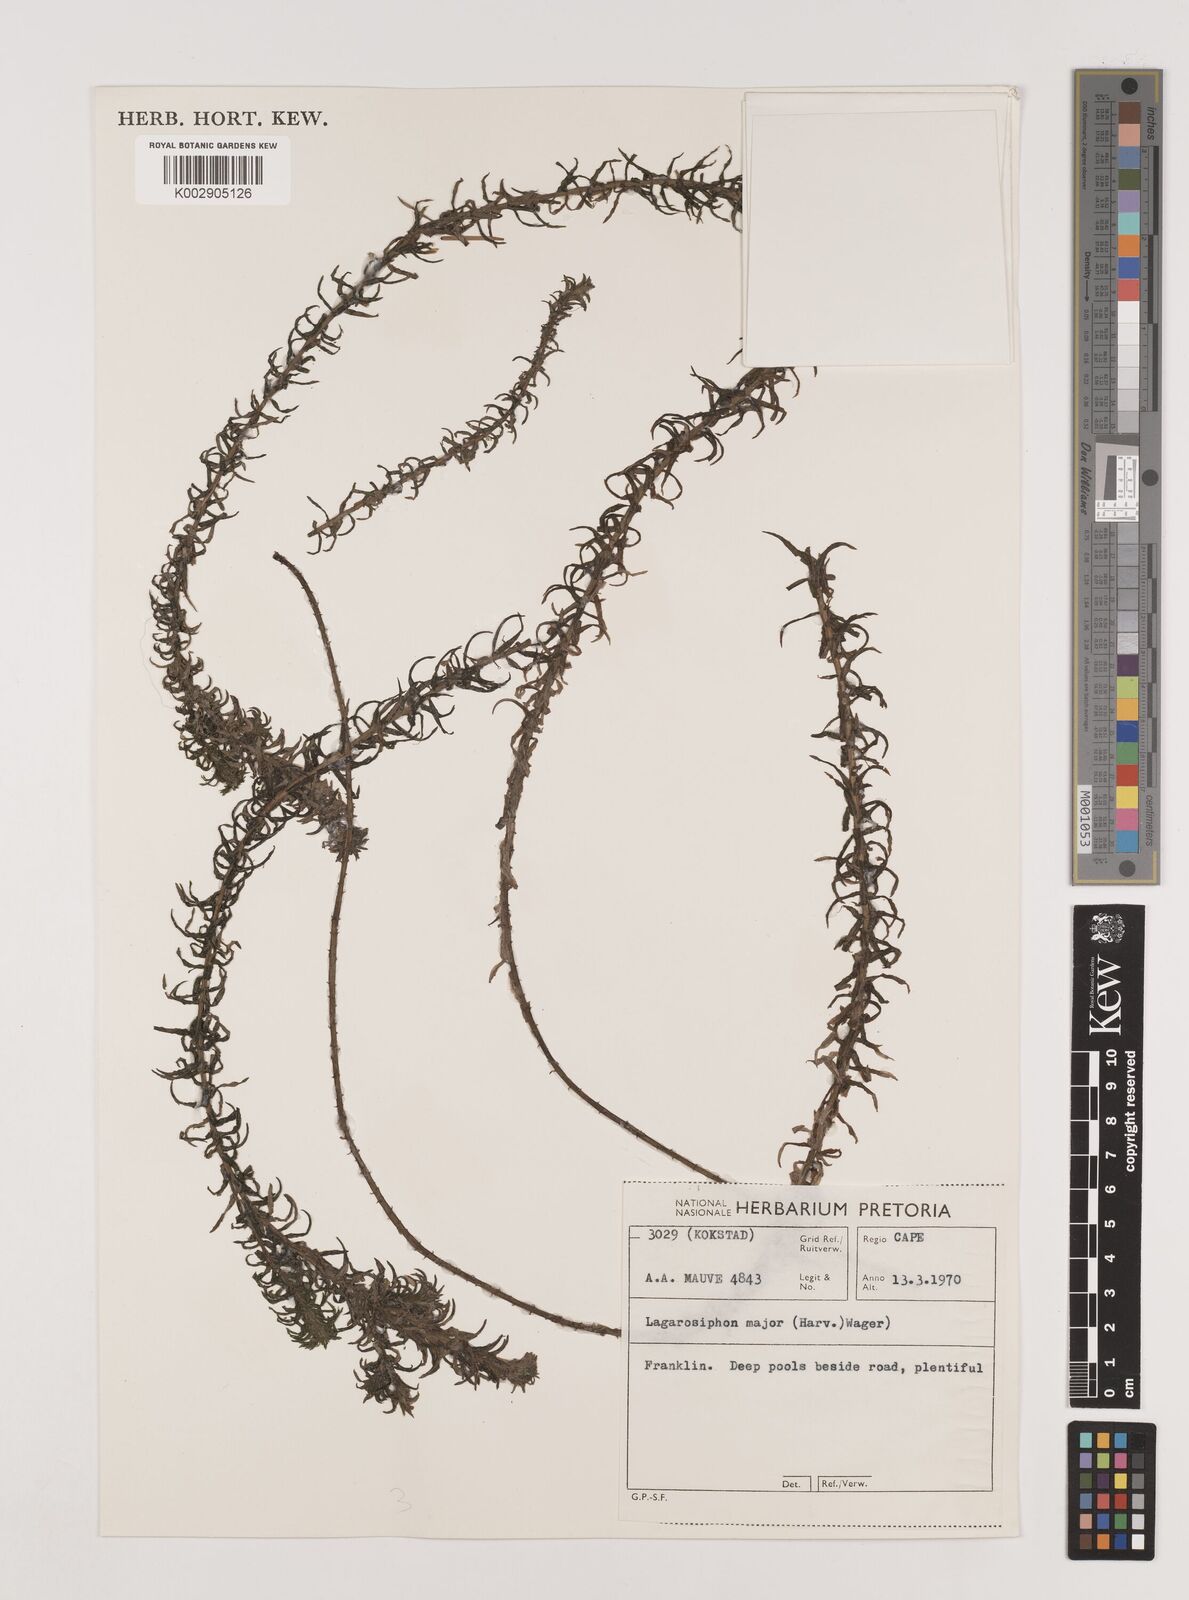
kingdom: Plantae
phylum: Tracheophyta
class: Liliopsida
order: Alismatales
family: Hydrocharitaceae
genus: Lagarosiphon
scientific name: Lagarosiphon major
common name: Curly waterweed
